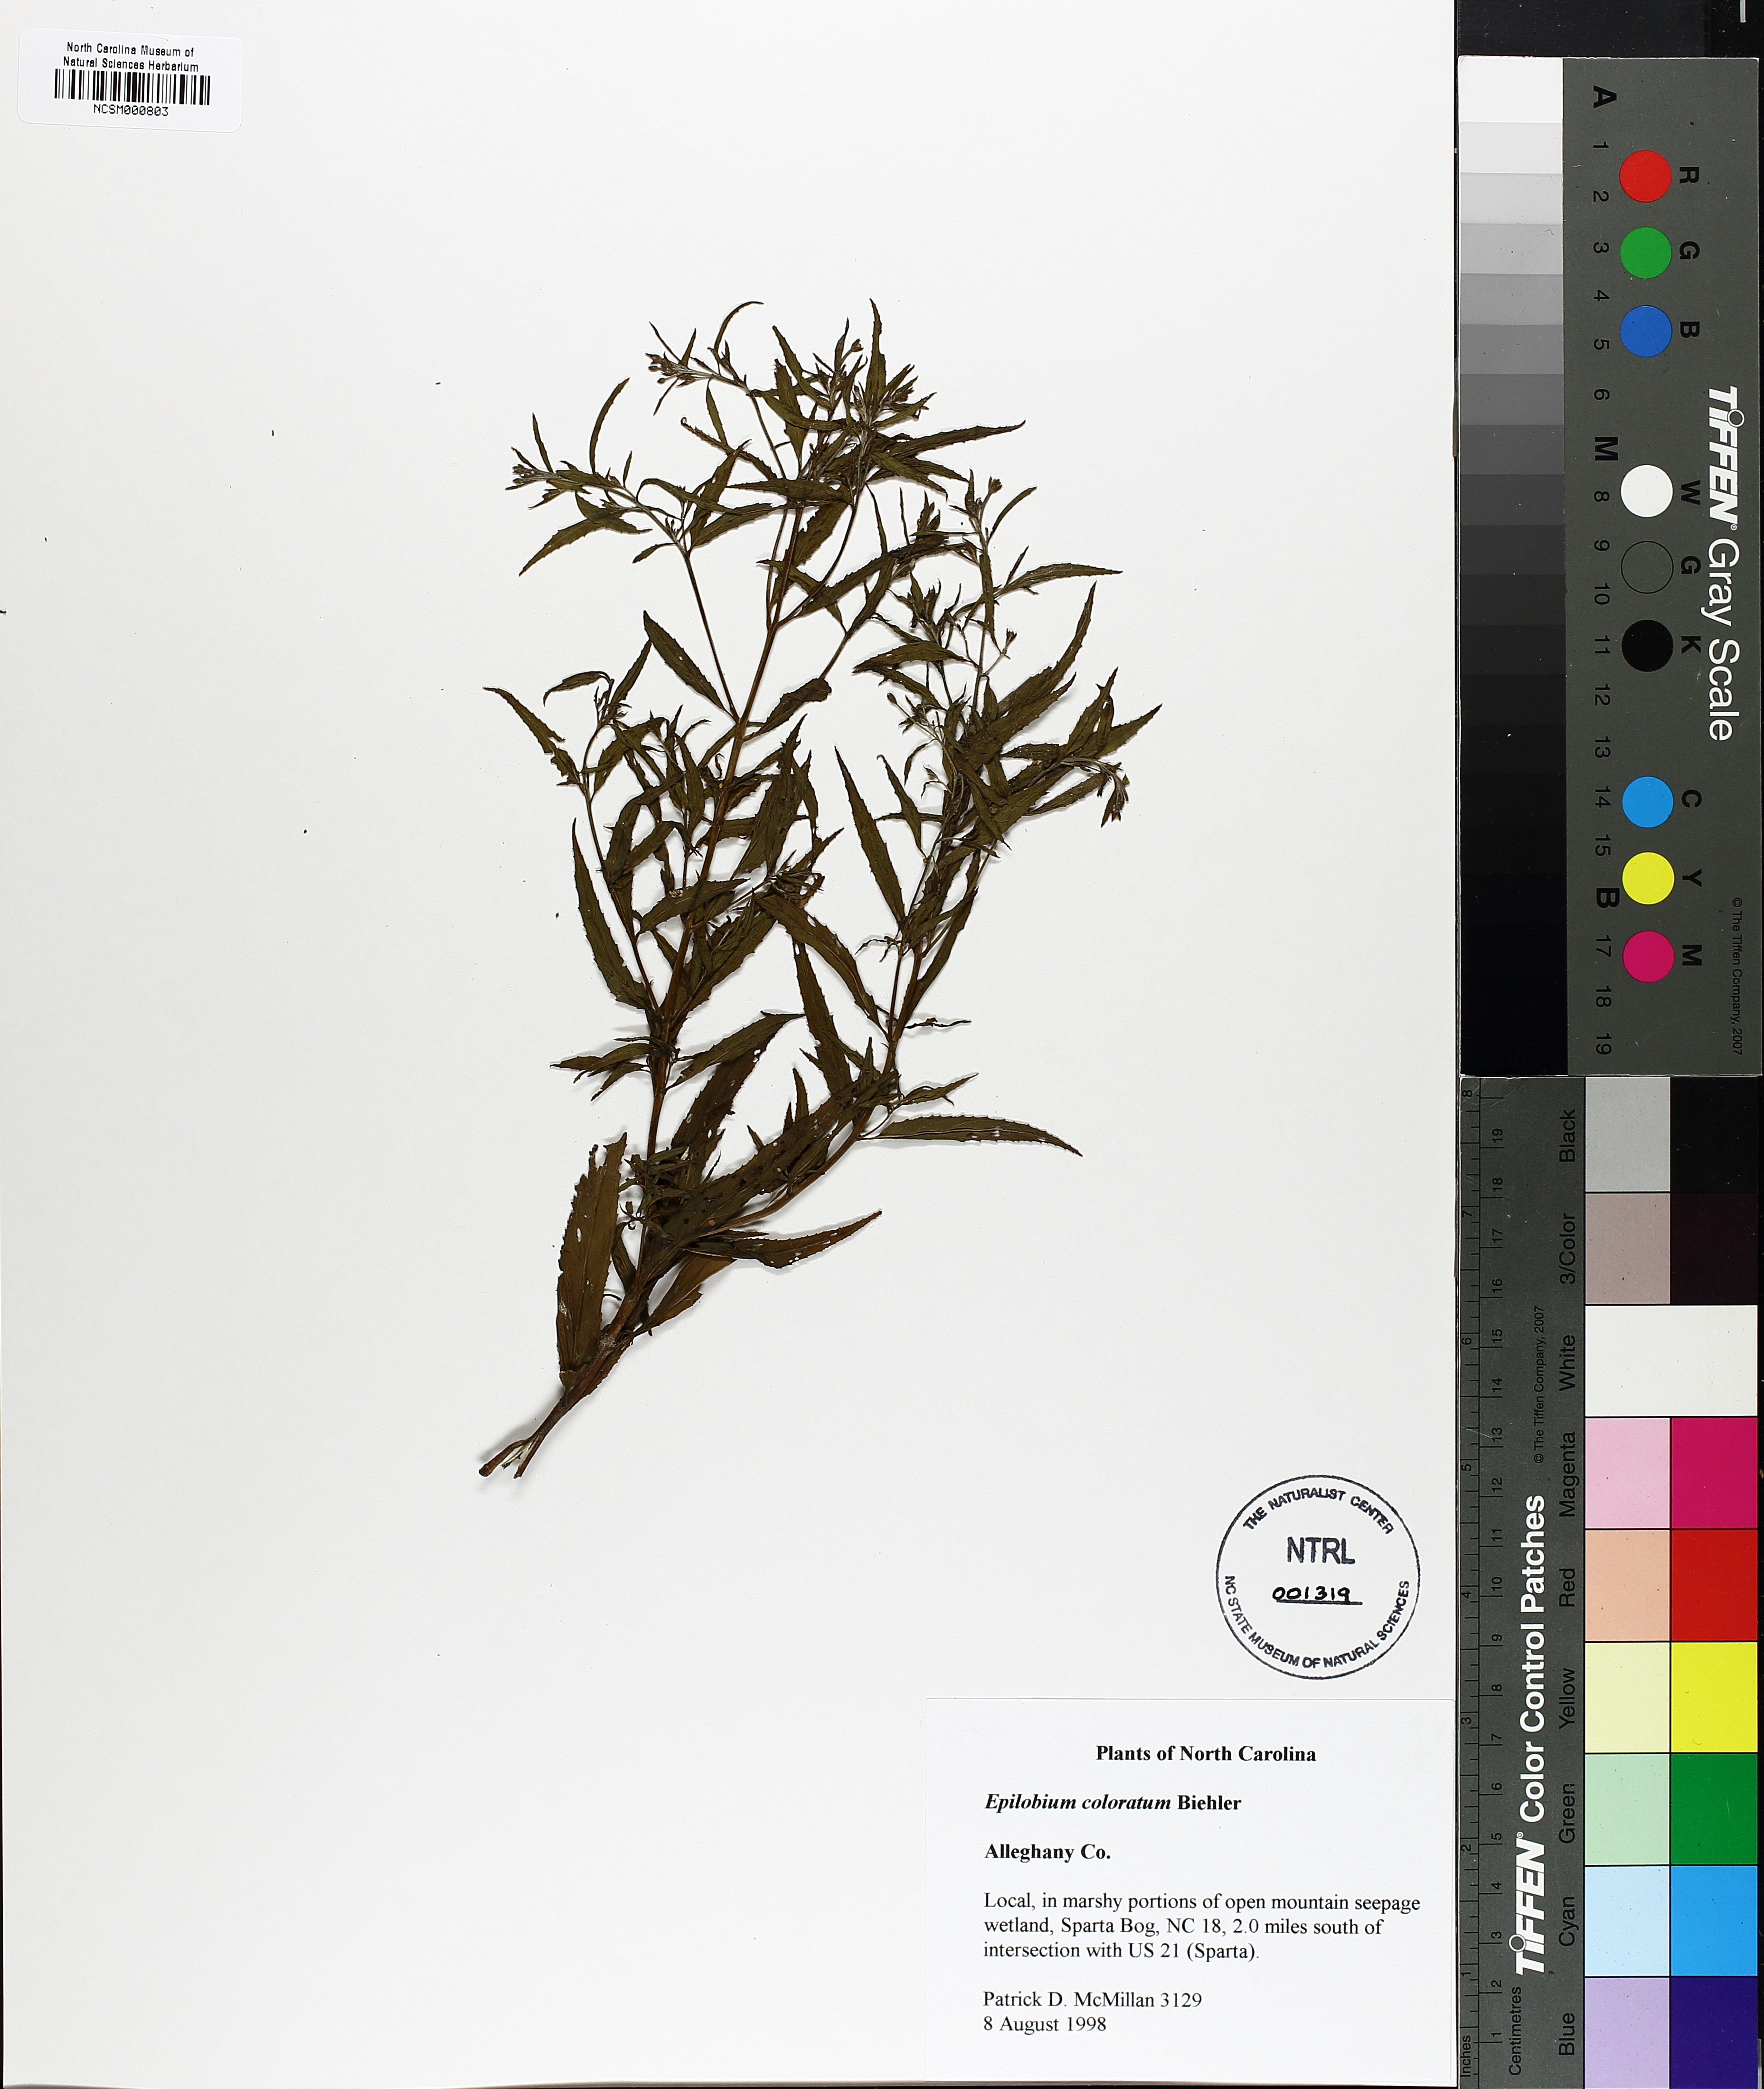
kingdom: Plantae
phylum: Tracheophyta
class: Magnoliopsida
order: Myrtales
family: Onagraceae
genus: Epilobium
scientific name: Epilobium coloratum
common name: Bronze willowherb
